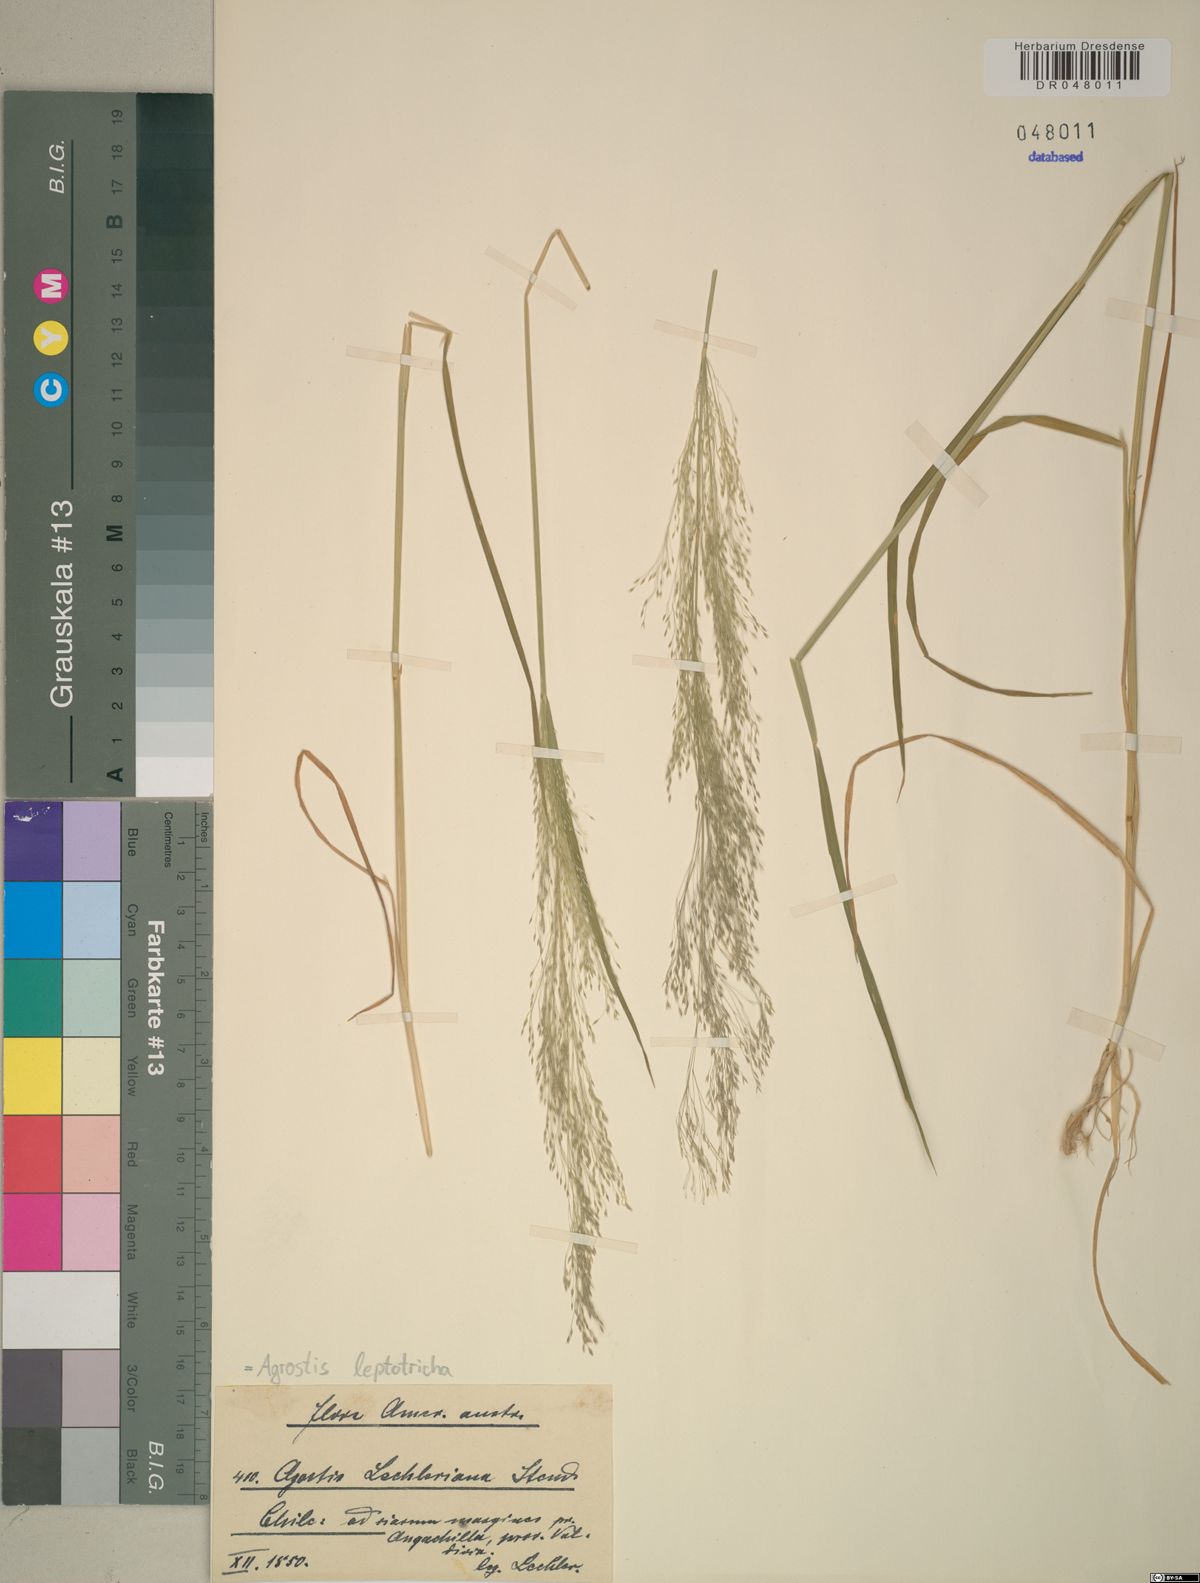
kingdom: Plantae
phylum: Tracheophyta
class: Liliopsida
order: Poales
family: Poaceae
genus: Agrostis
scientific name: Agrostis leptotricha
